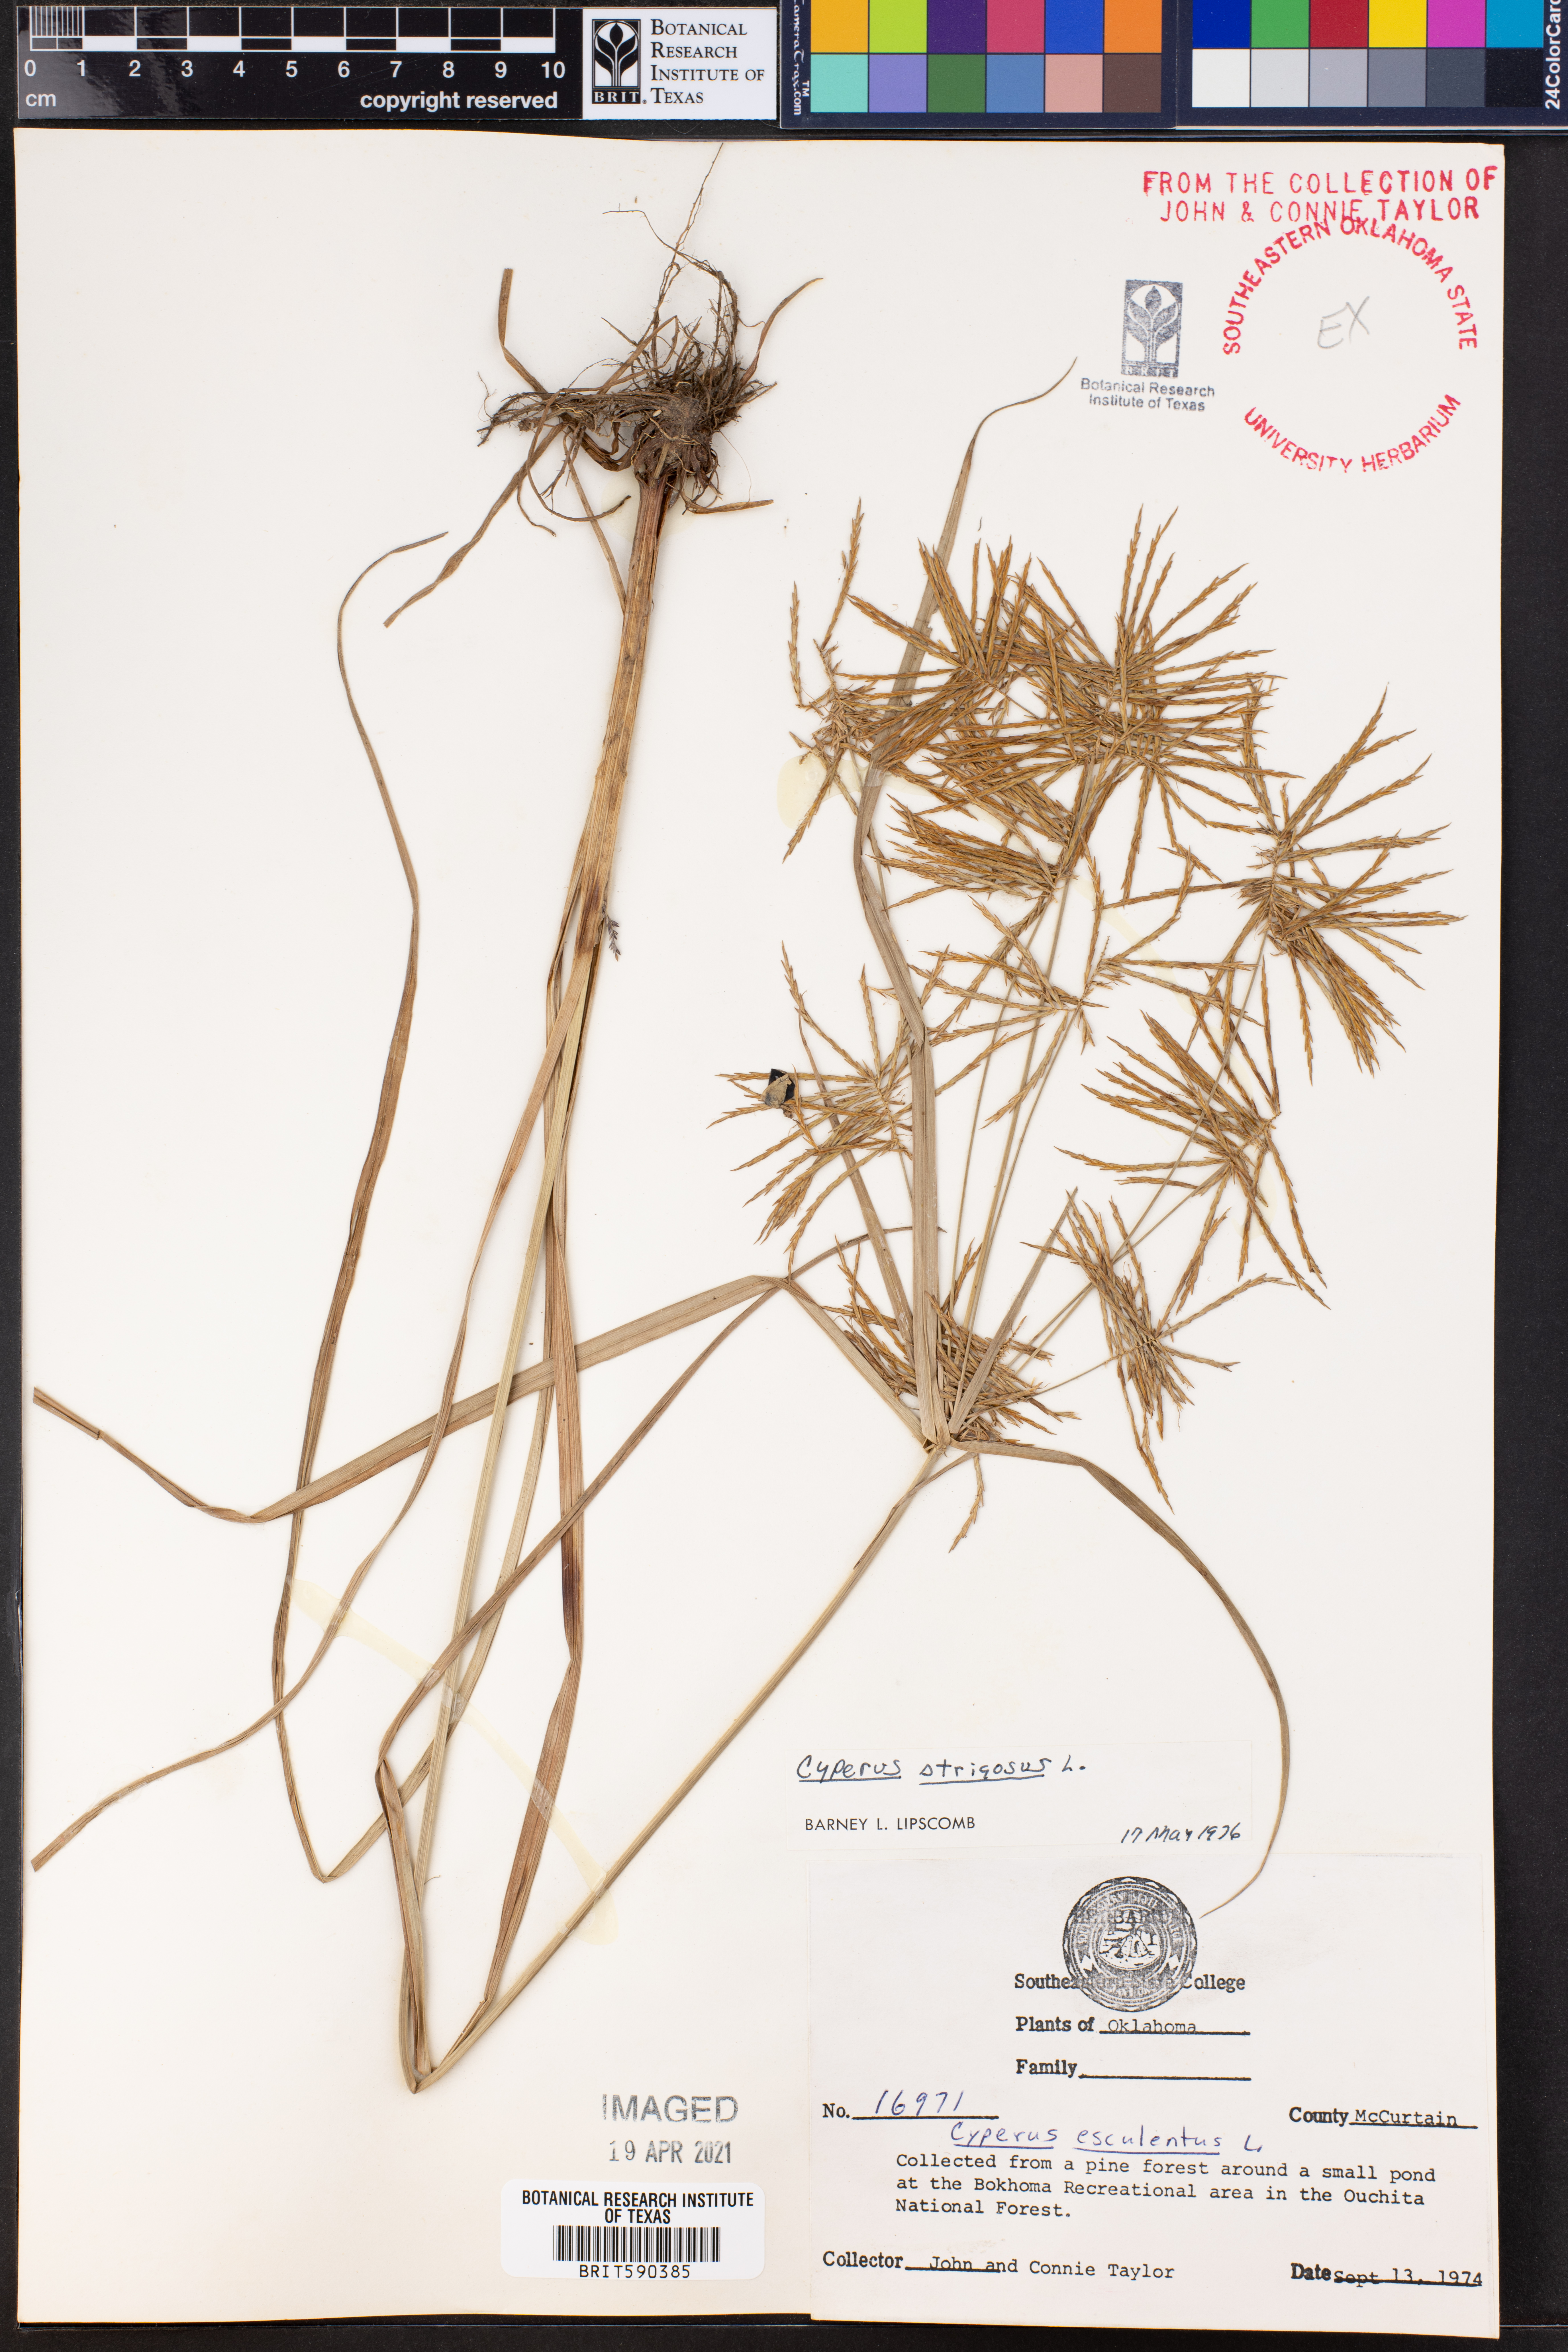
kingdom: Plantae
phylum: Tracheophyta
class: Liliopsida
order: Poales
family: Cyperaceae
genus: Cyperus
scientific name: Cyperus strigosus
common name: False nutsedge
